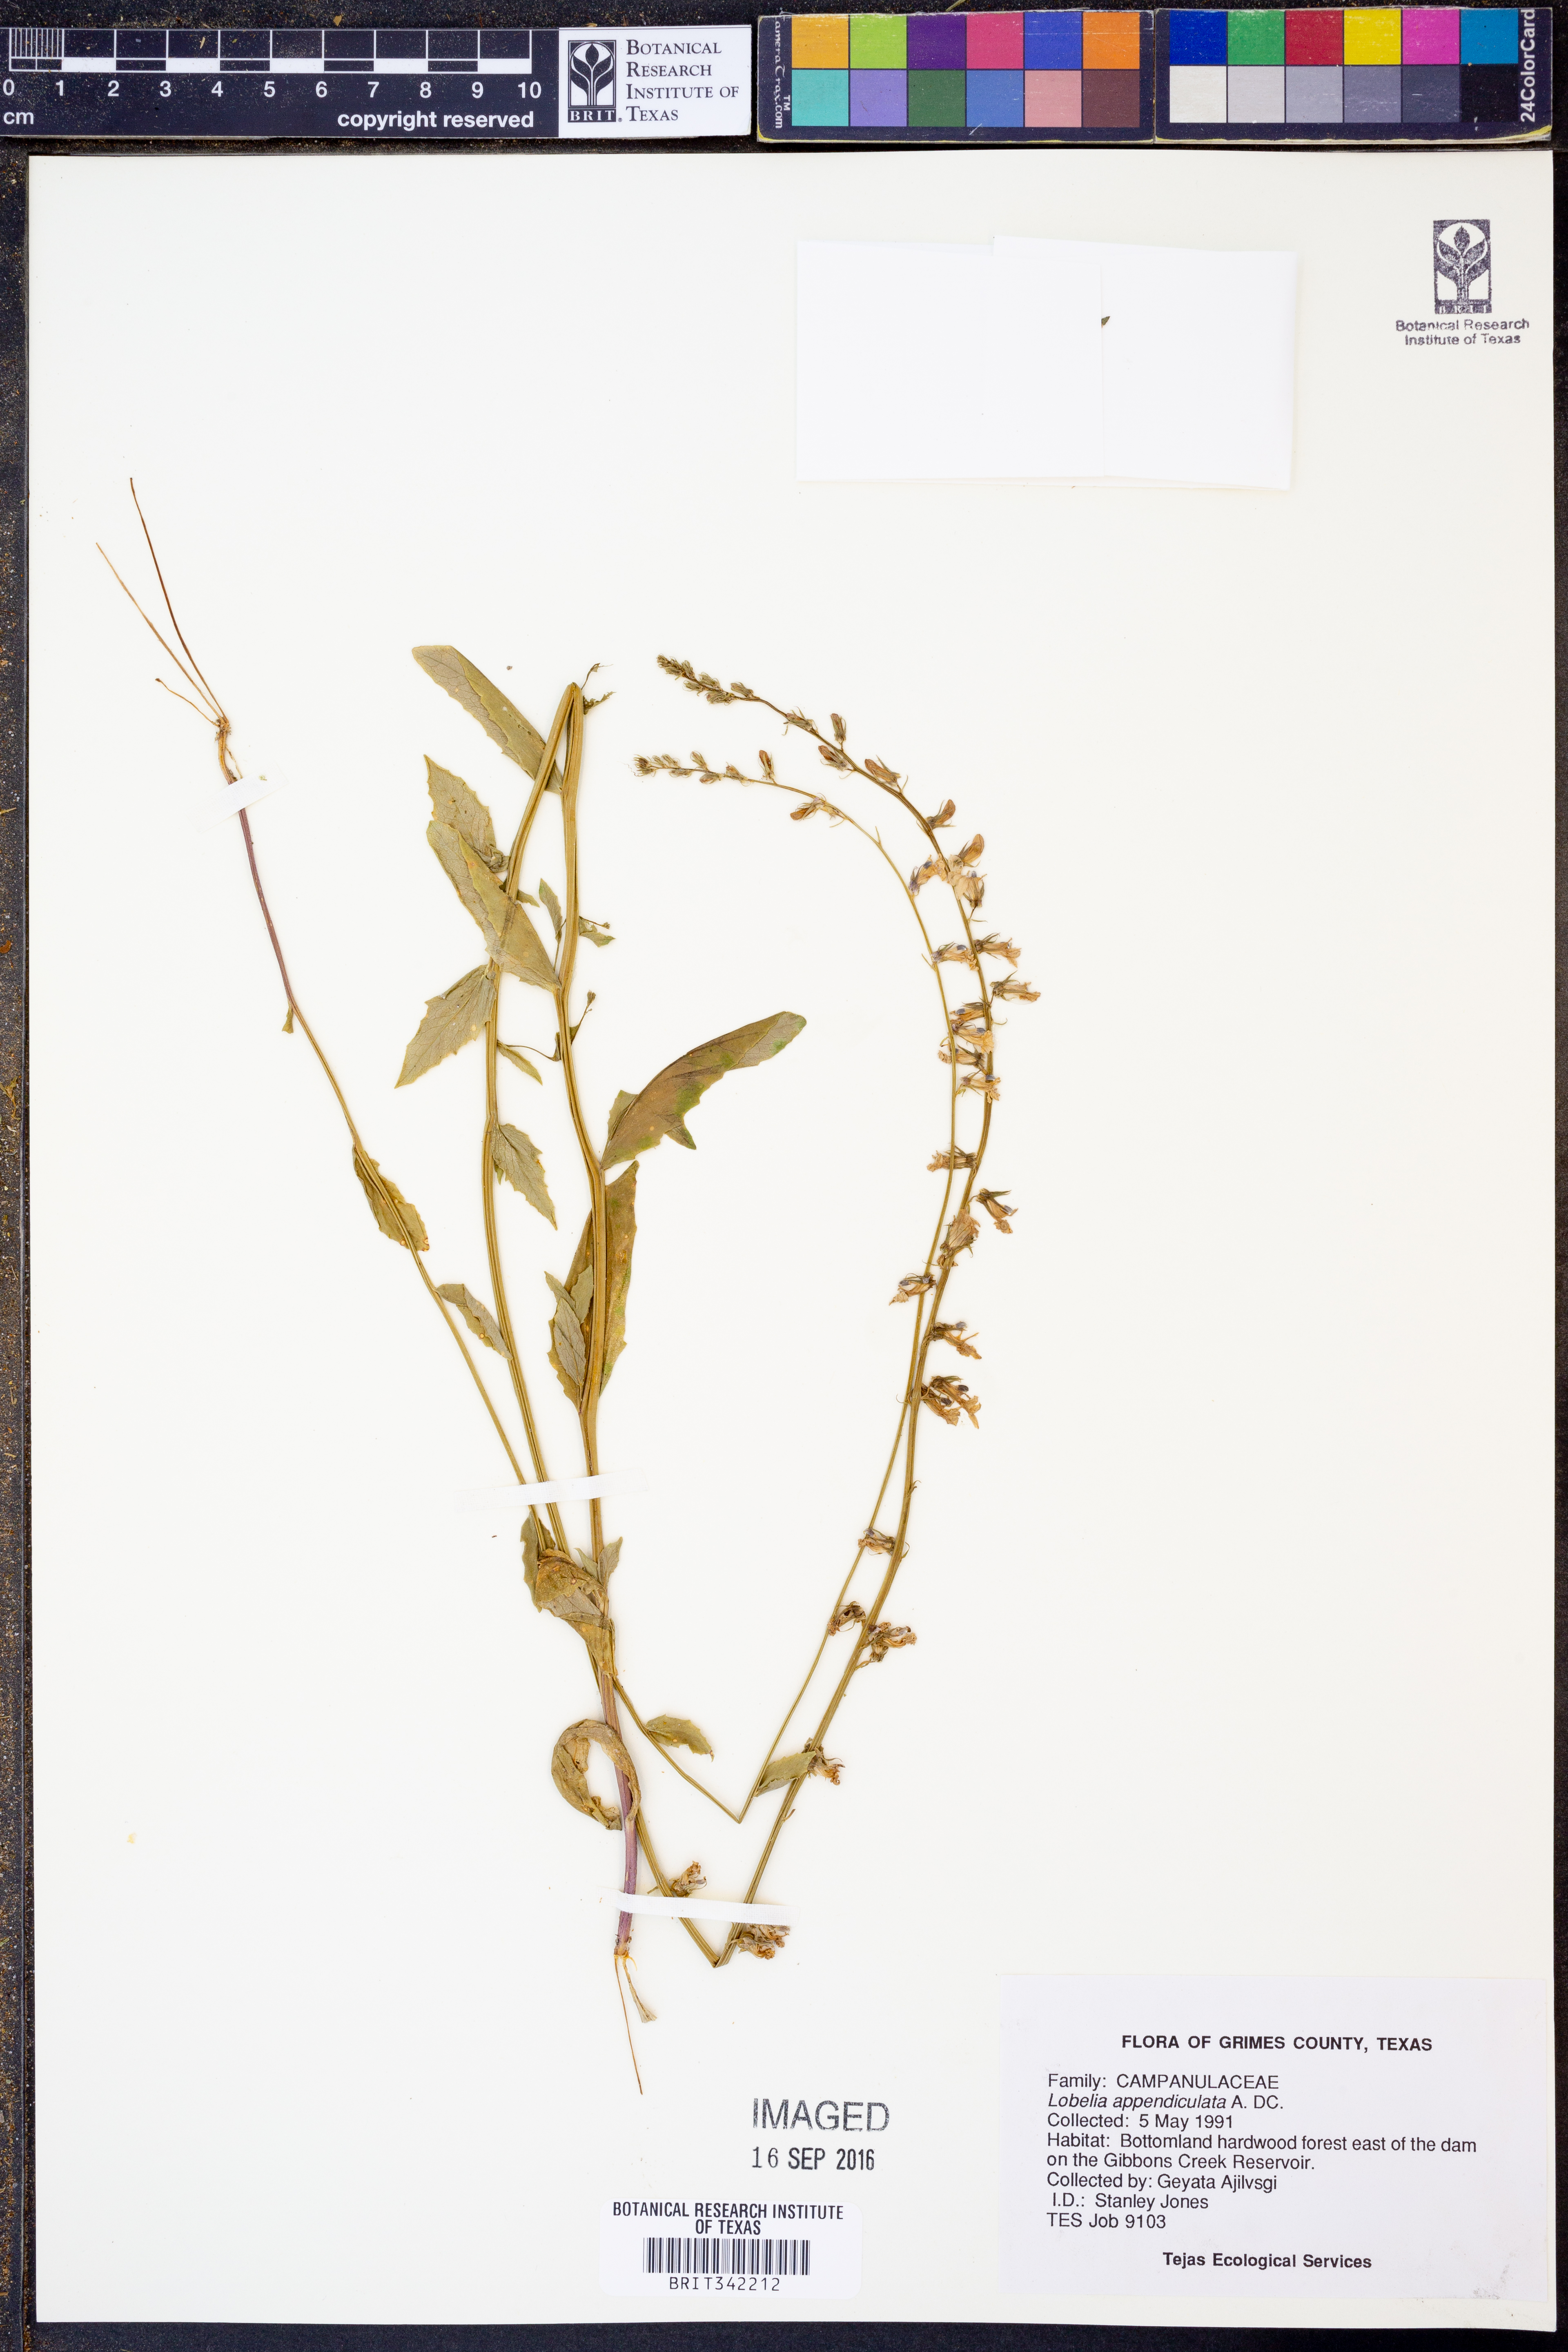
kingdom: Plantae
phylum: Tracheophyta
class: Magnoliopsida
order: Asterales
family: Campanulaceae
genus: Lobelia
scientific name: Lobelia appendiculata
